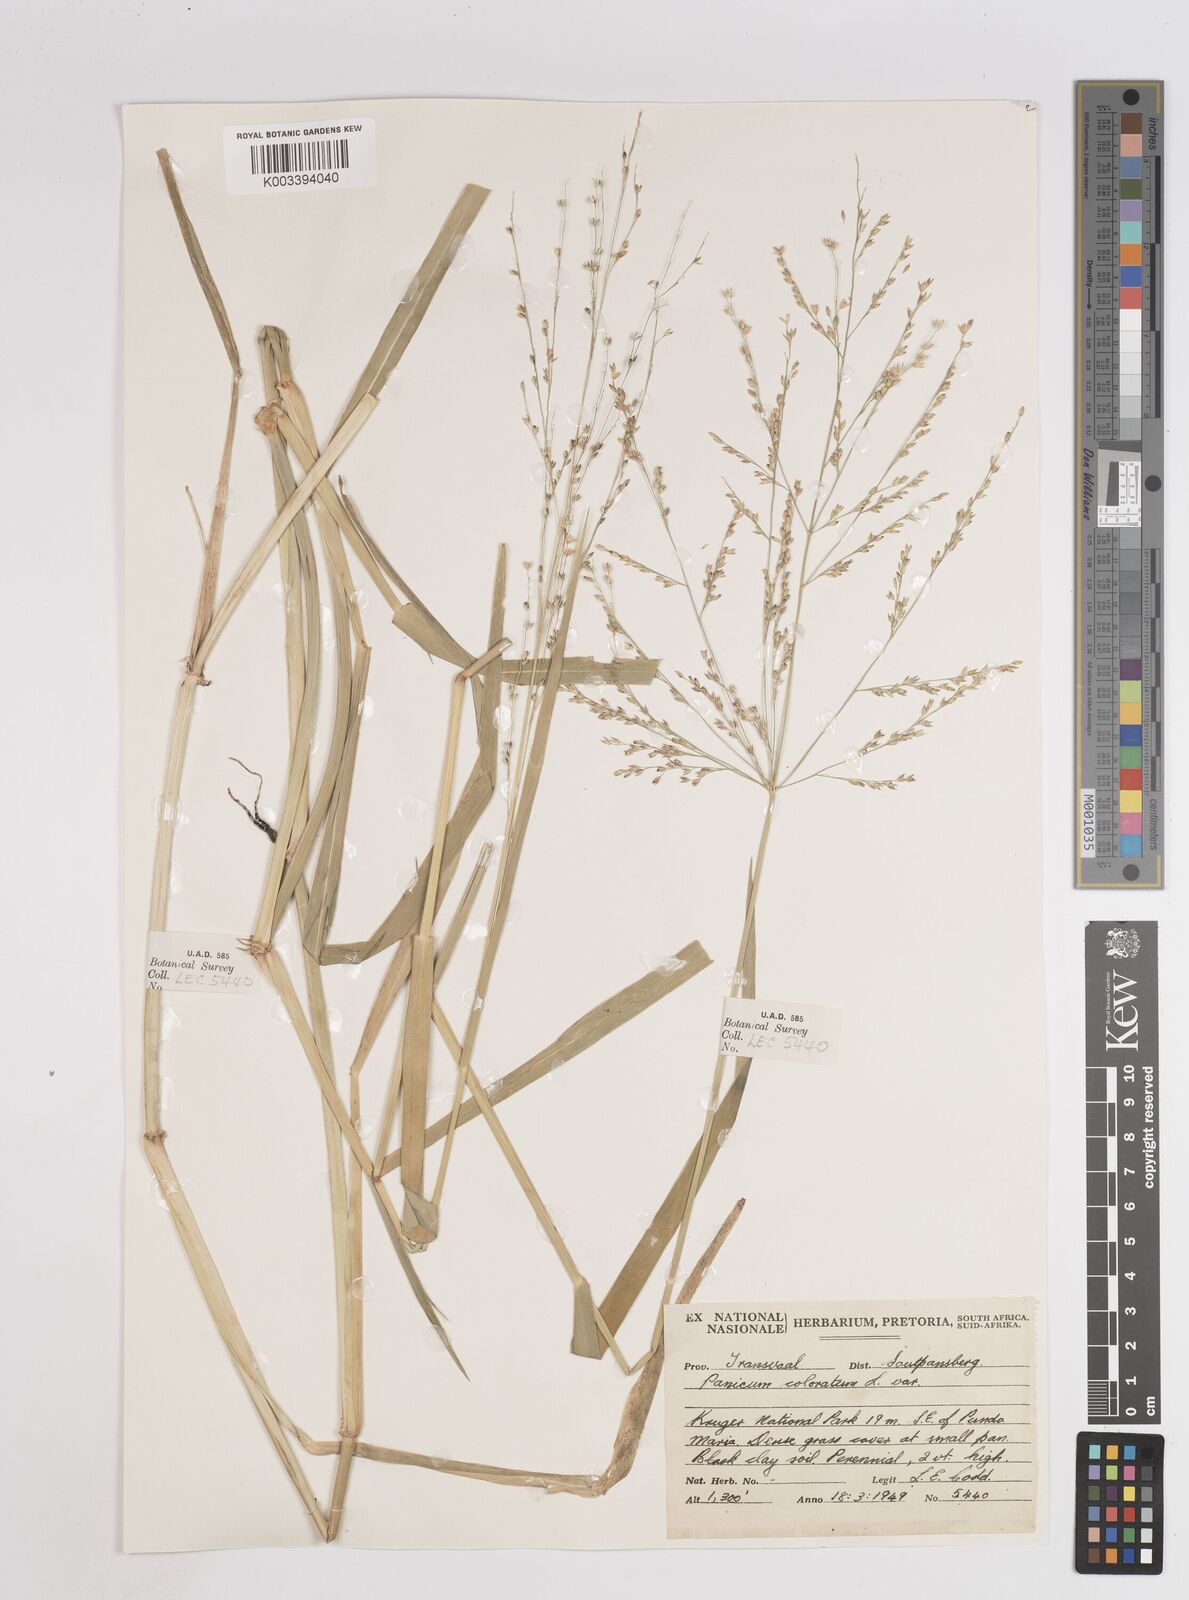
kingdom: Plantae
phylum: Tracheophyta
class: Liliopsida
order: Poales
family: Poaceae
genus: Panicum
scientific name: Panicum coloratum
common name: Kleingrass
